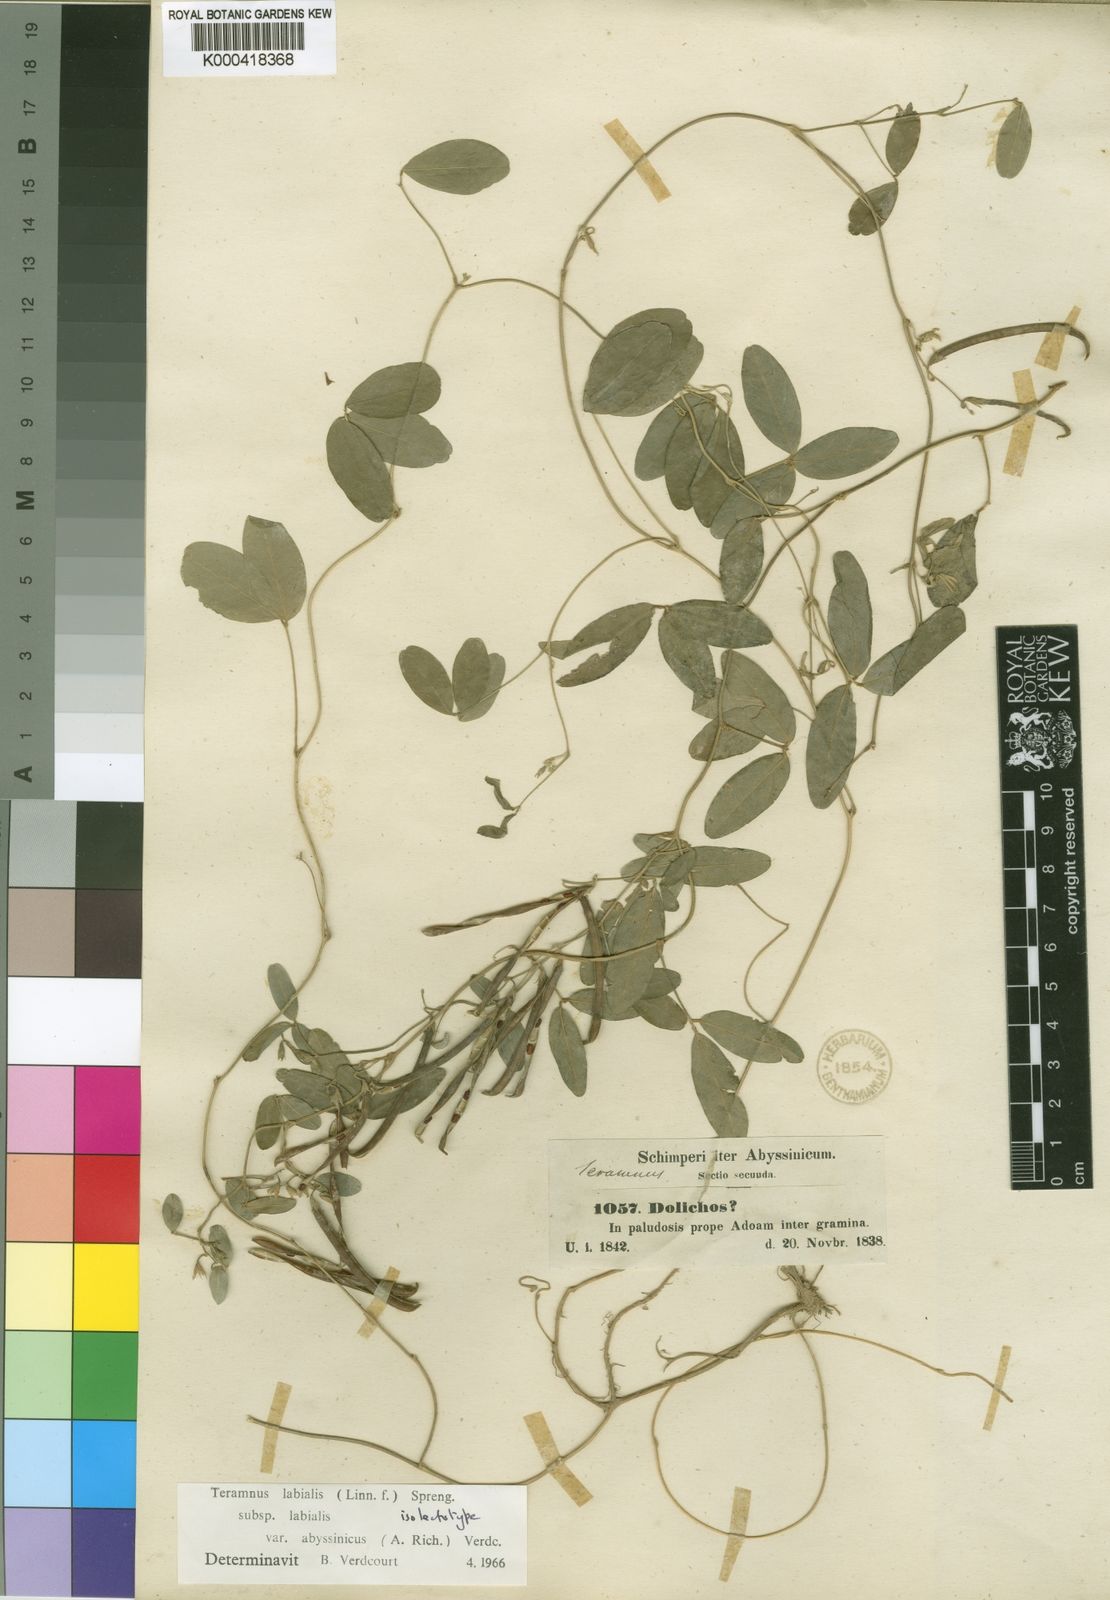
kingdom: Plantae
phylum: Tracheophyta
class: Magnoliopsida
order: Fabales
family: Fabaceae
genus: Teramnus
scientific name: Teramnus labialis
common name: Blue wiss
